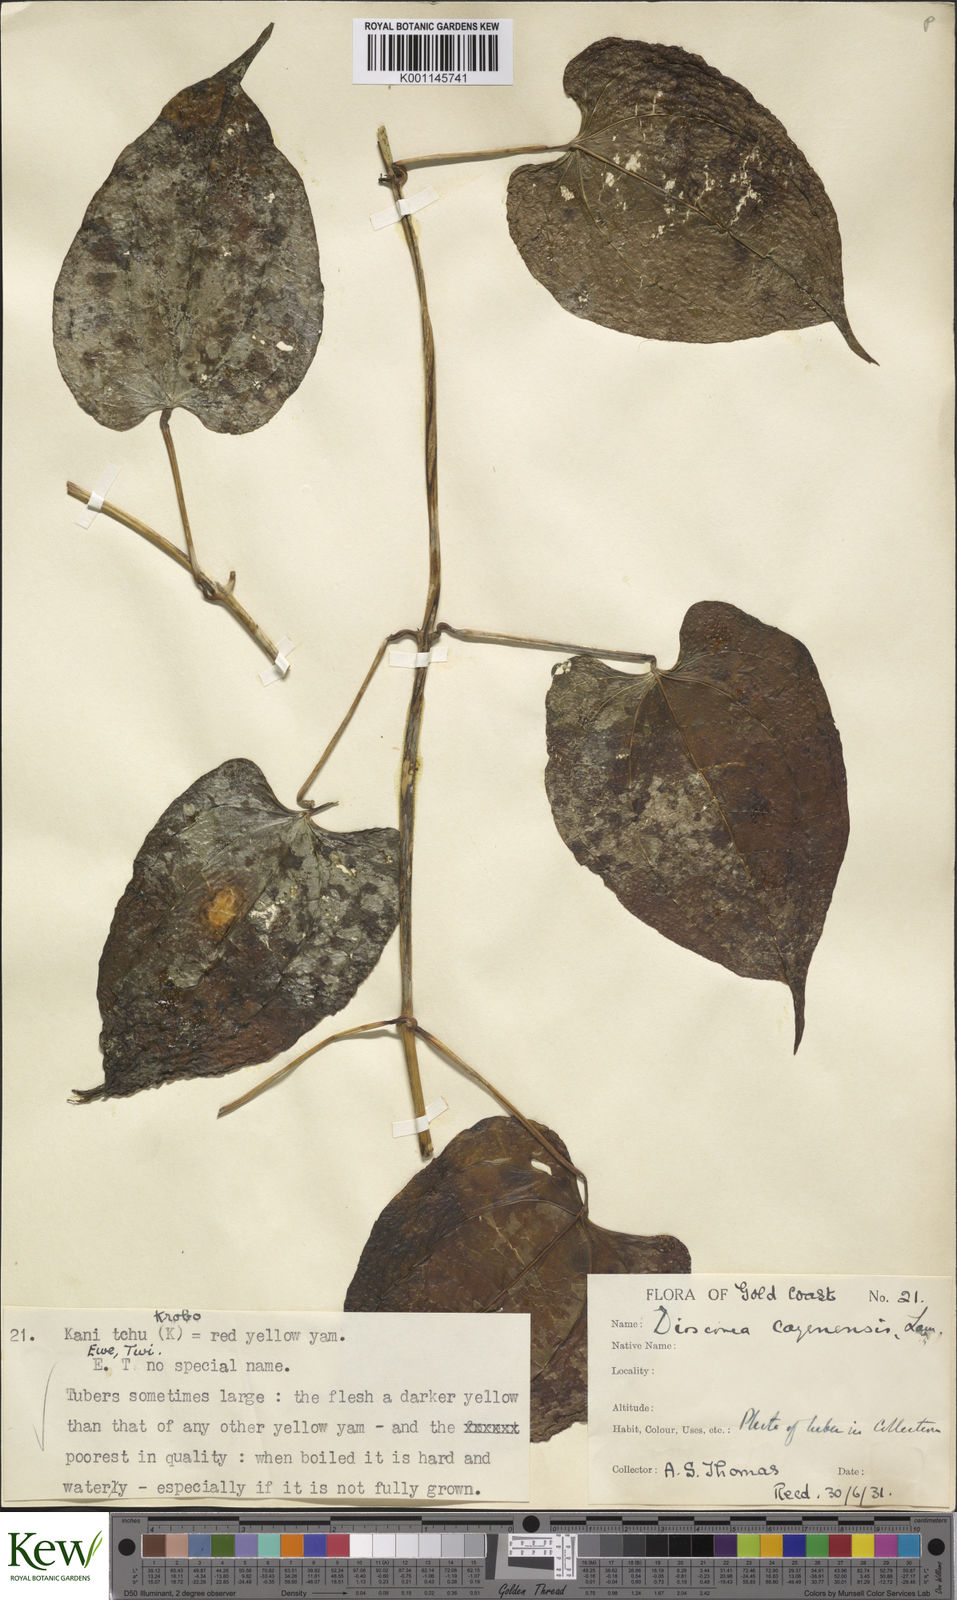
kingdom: Plantae
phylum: Tracheophyta
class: Liliopsida
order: Dioscoreales
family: Dioscoreaceae
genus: Dioscorea
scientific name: Dioscorea cayenensis
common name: Attoto yam
